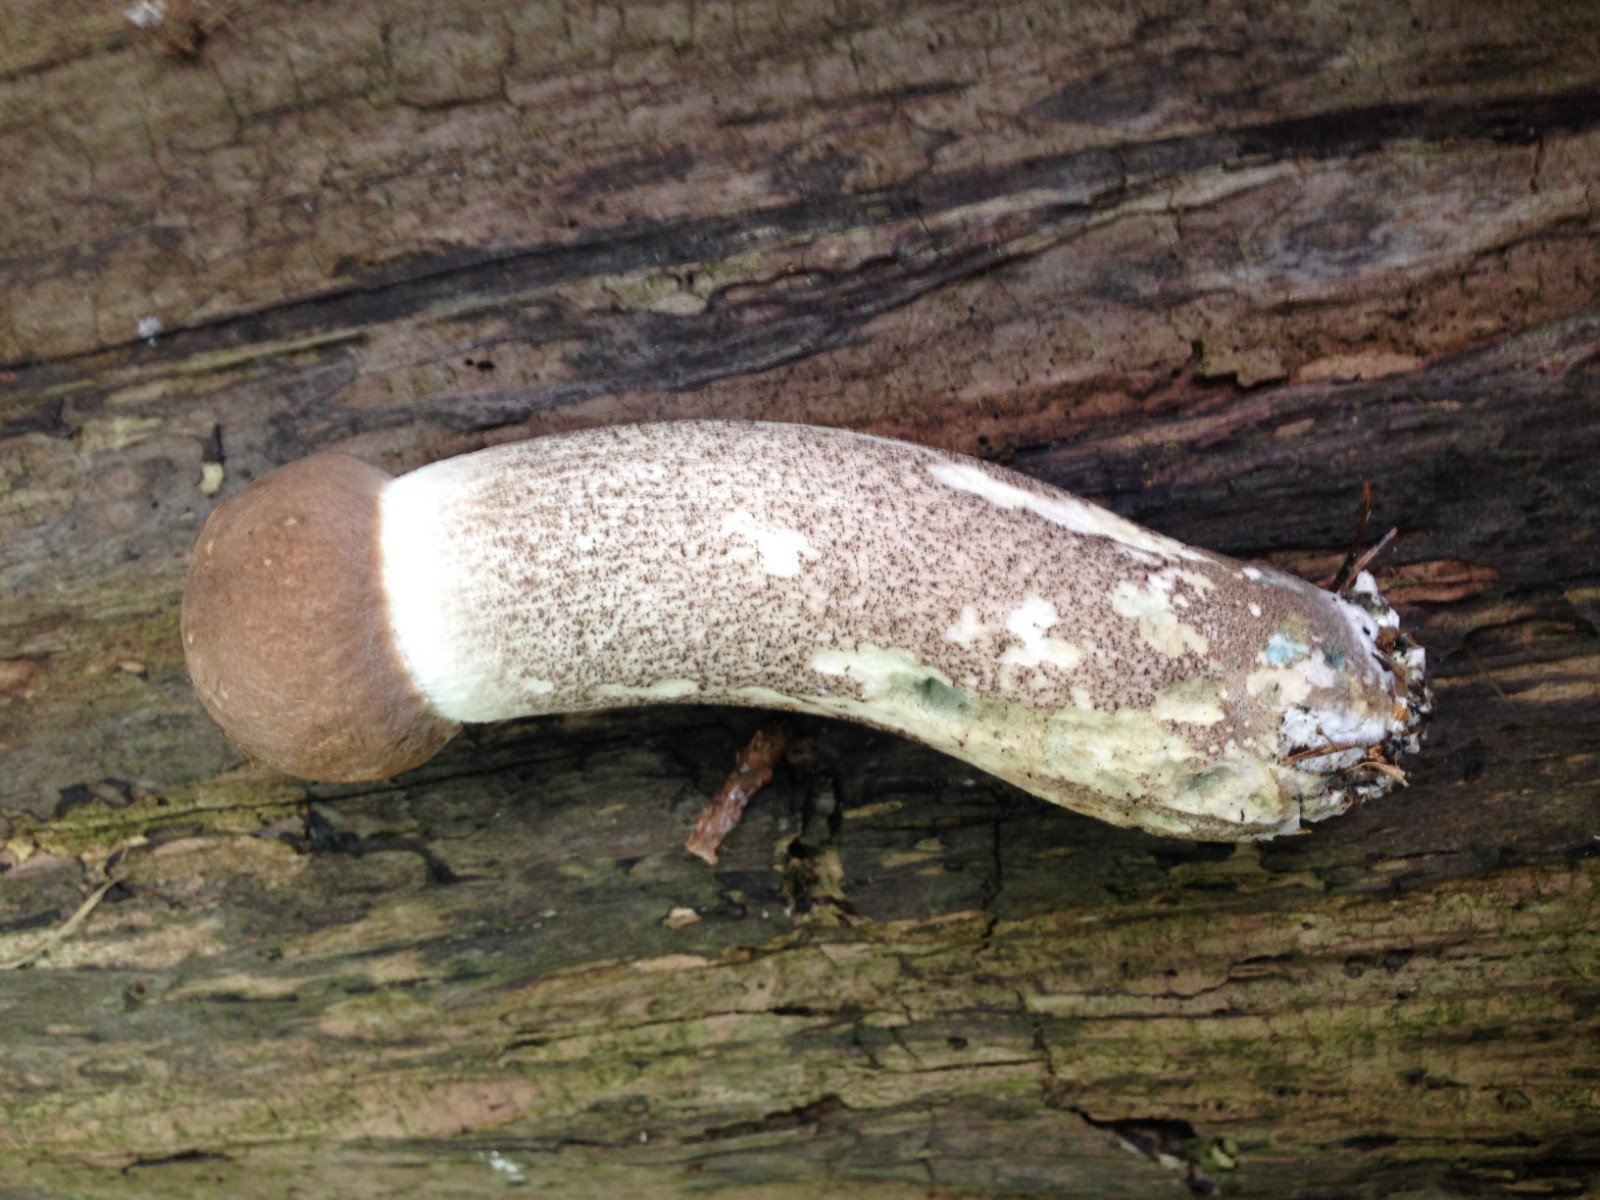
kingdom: Fungi
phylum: Basidiomycota
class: Agaricomycetes
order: Boletales
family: Boletaceae
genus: Leccinum
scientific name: Leccinum duriusculum
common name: poppel-skælrørhat
